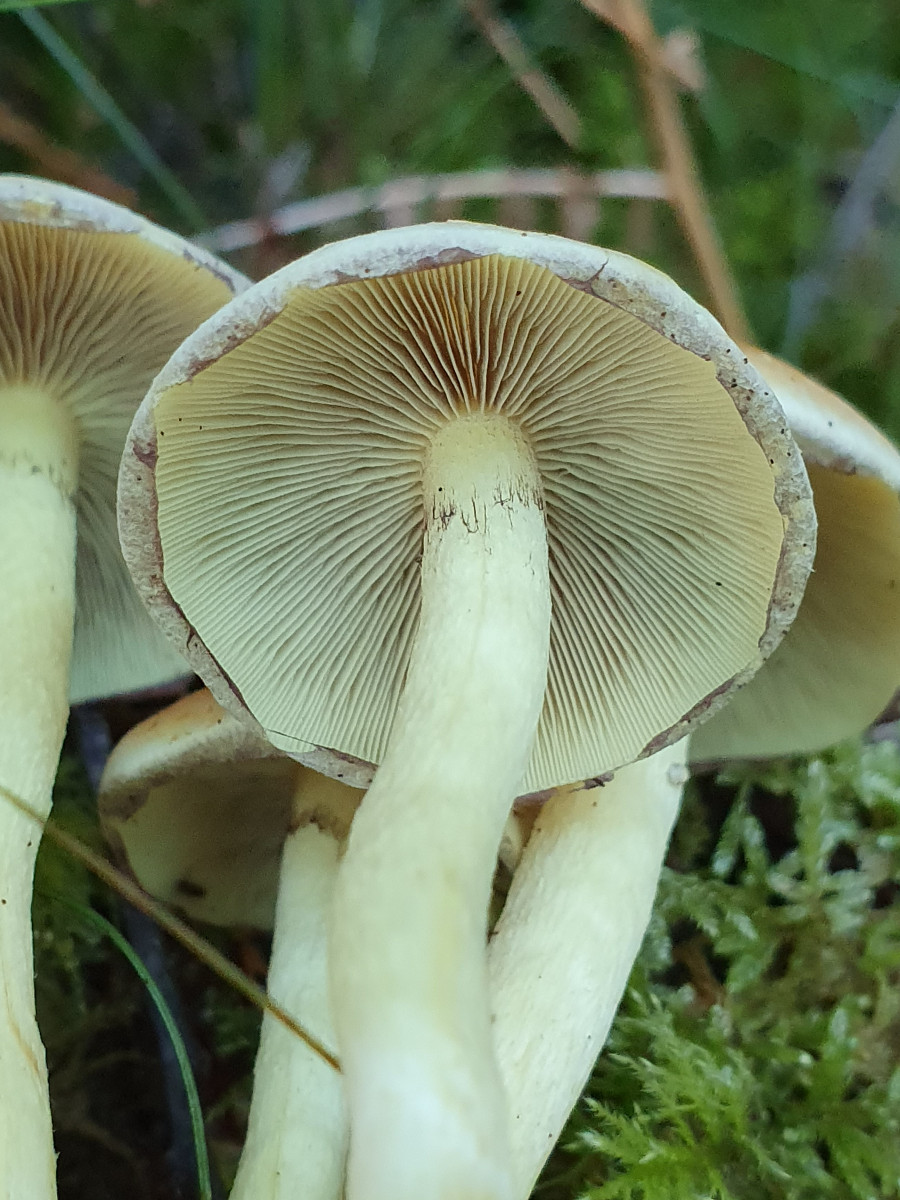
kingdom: Fungi
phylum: Basidiomycota
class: Agaricomycetes
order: Agaricales
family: Strophariaceae
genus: Hypholoma
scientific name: Hypholoma fasciculare
